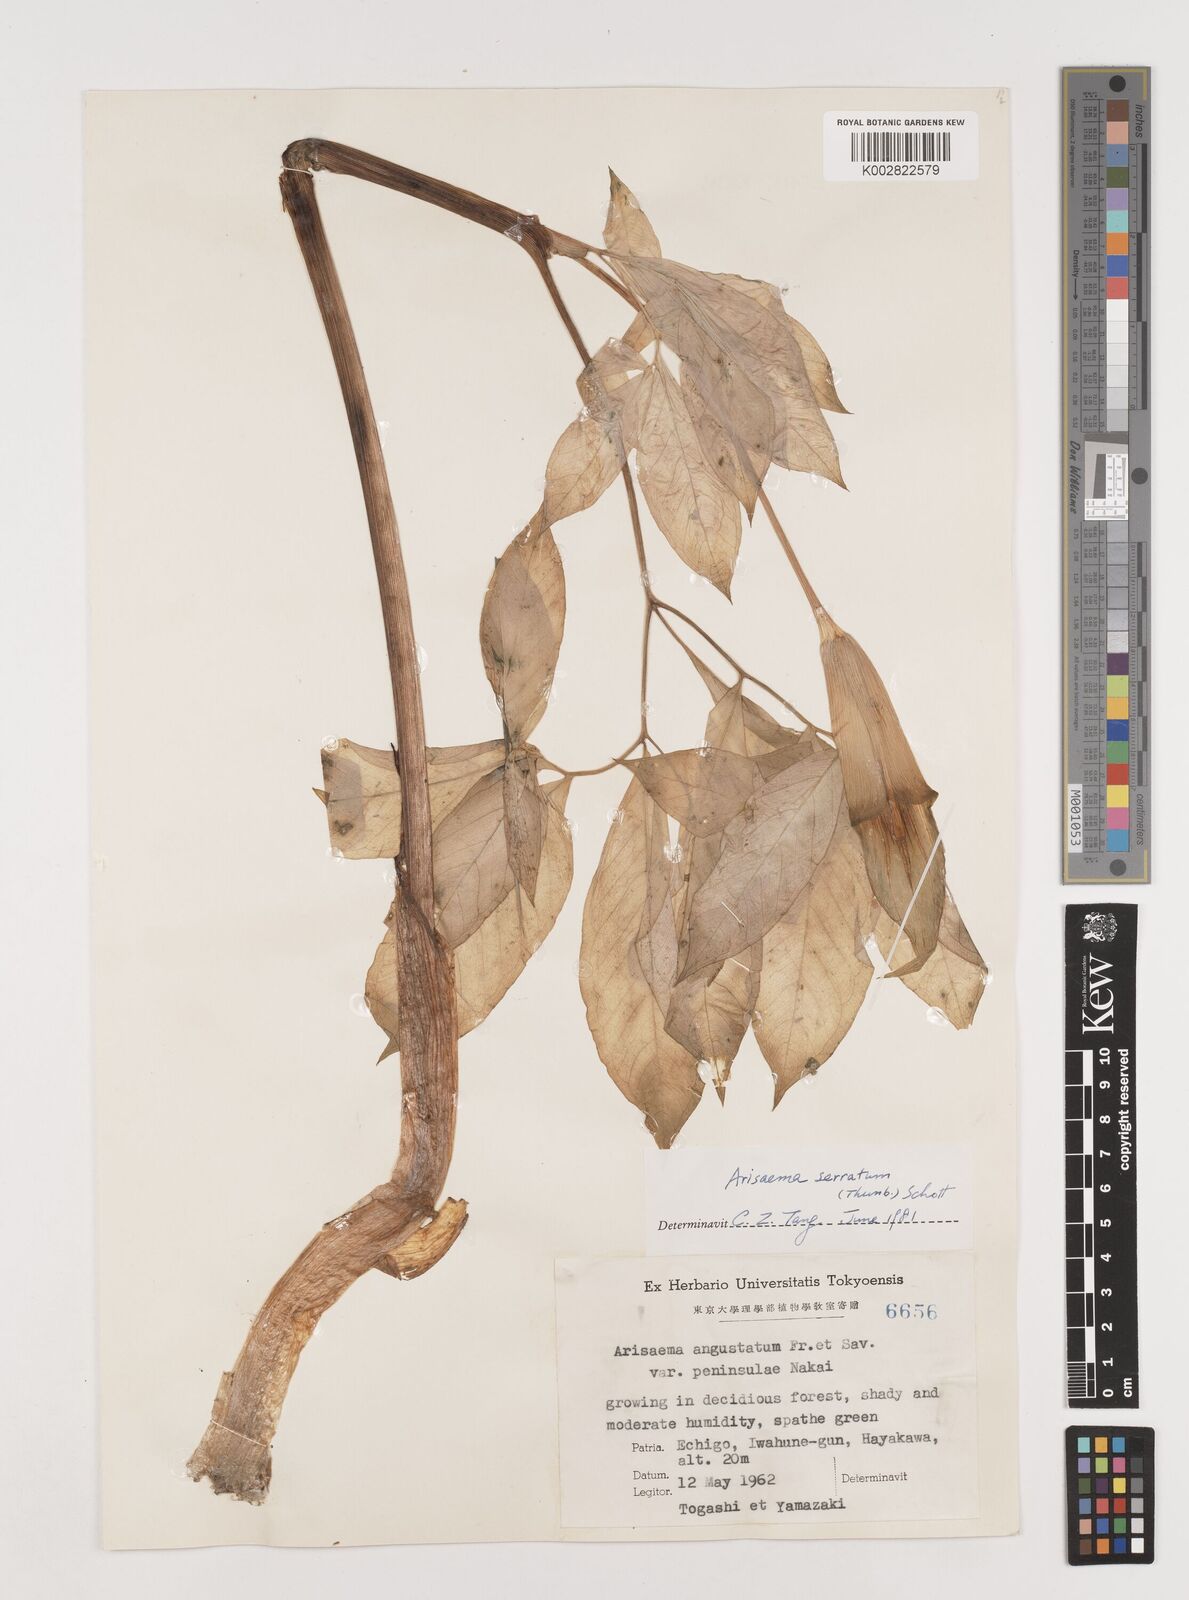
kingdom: Plantae
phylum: Tracheophyta
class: Liliopsida
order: Alismatales
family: Araceae
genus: Arisaema
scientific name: Arisaema serratum
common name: Japanese arisaema
